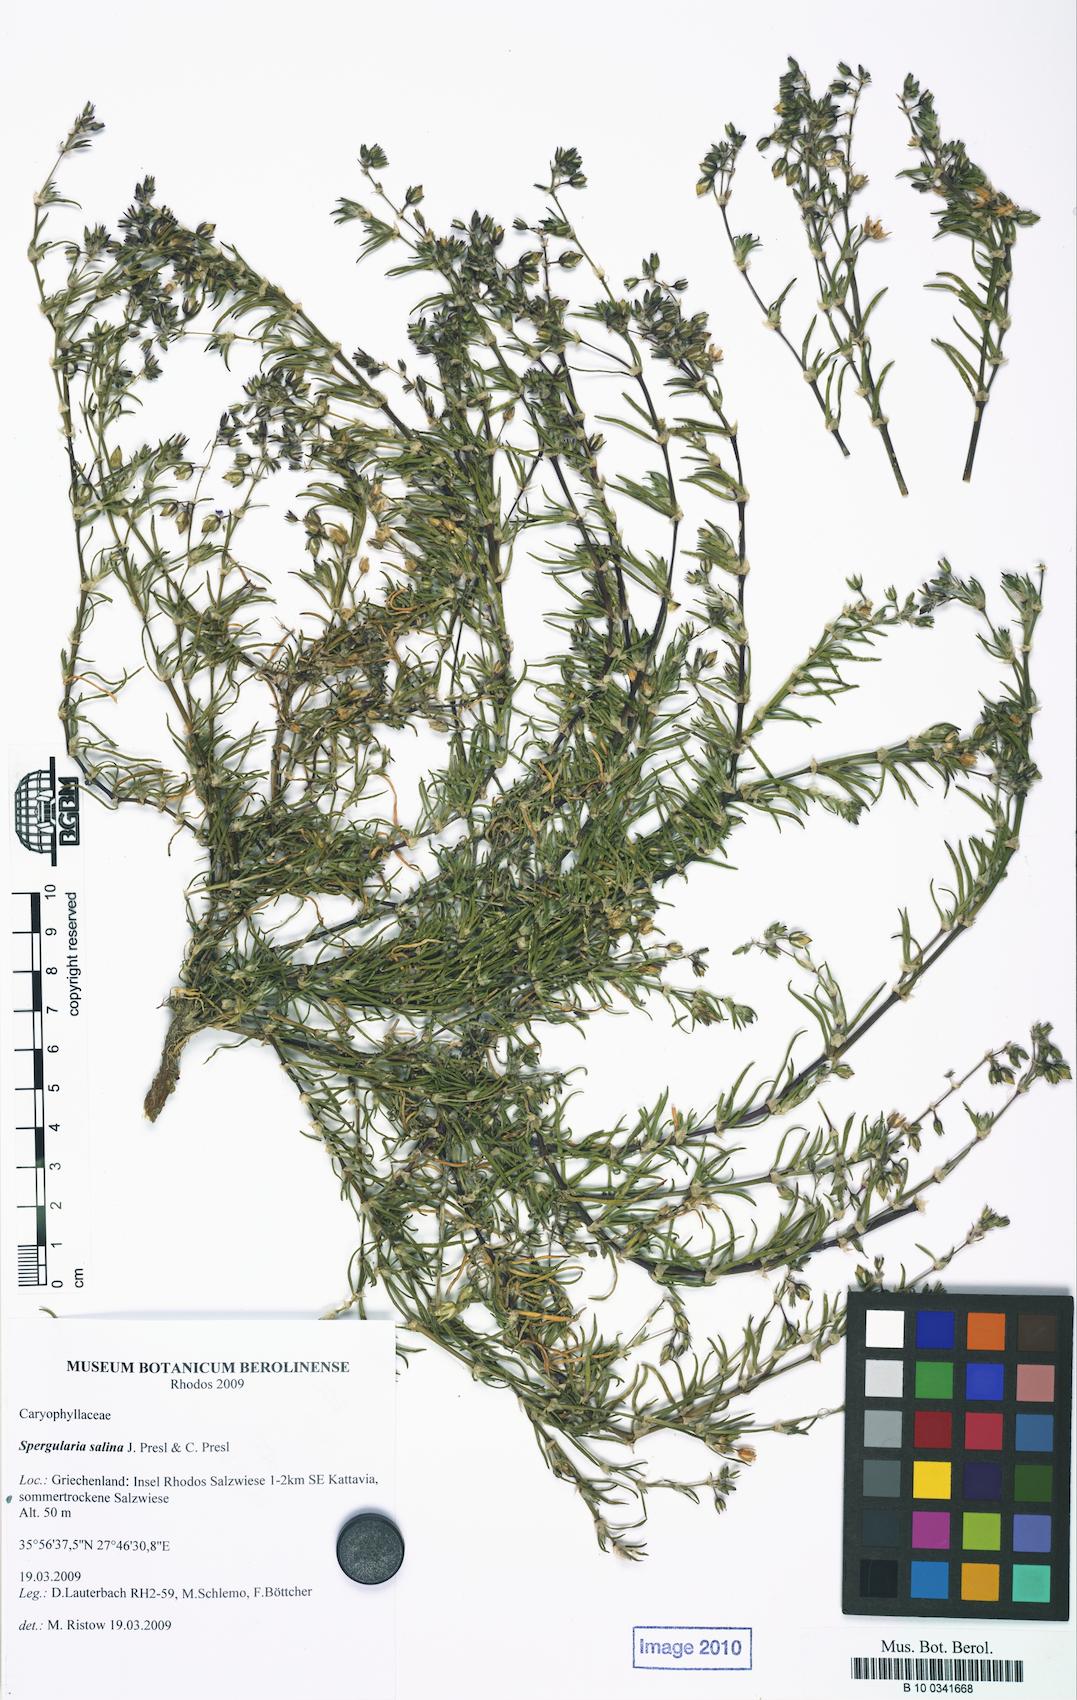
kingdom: Plantae
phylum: Tracheophyta
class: Magnoliopsida
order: Asterales
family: Asteraceae
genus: Tanacetum
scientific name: Tanacetum corymbosum
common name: Scentless feverfew
